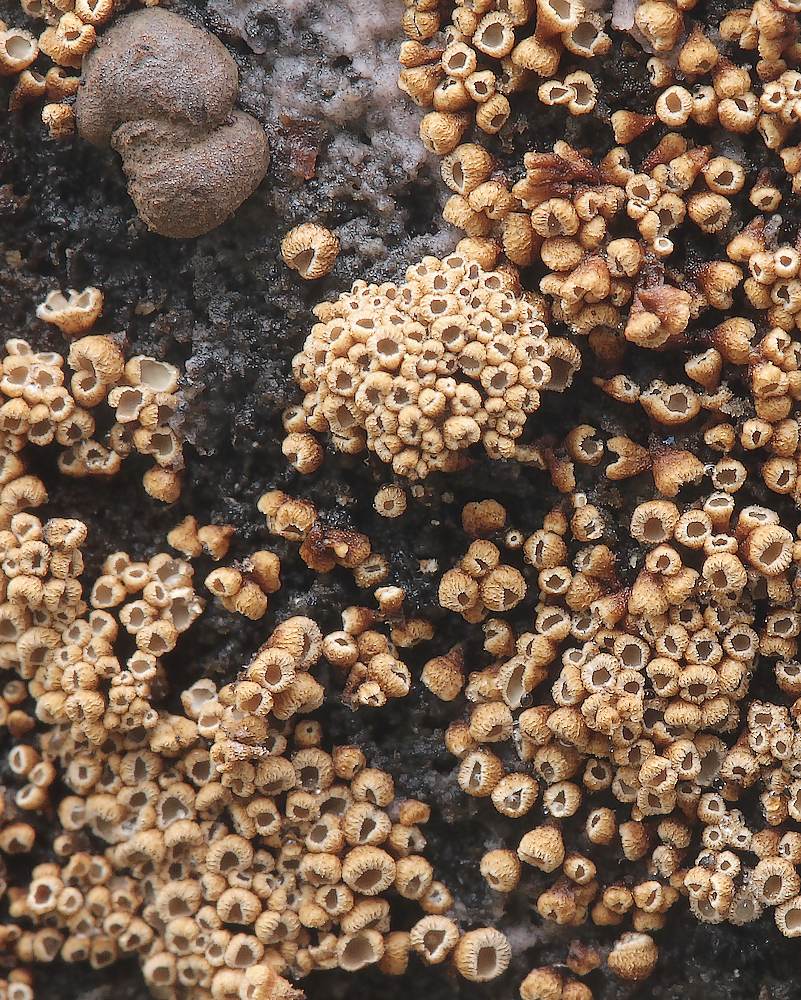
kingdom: Fungi
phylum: Basidiomycota
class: Agaricomycetes
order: Agaricales
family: Niaceae
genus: Merismodes
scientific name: Merismodes anomala
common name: almindelig læderskål
